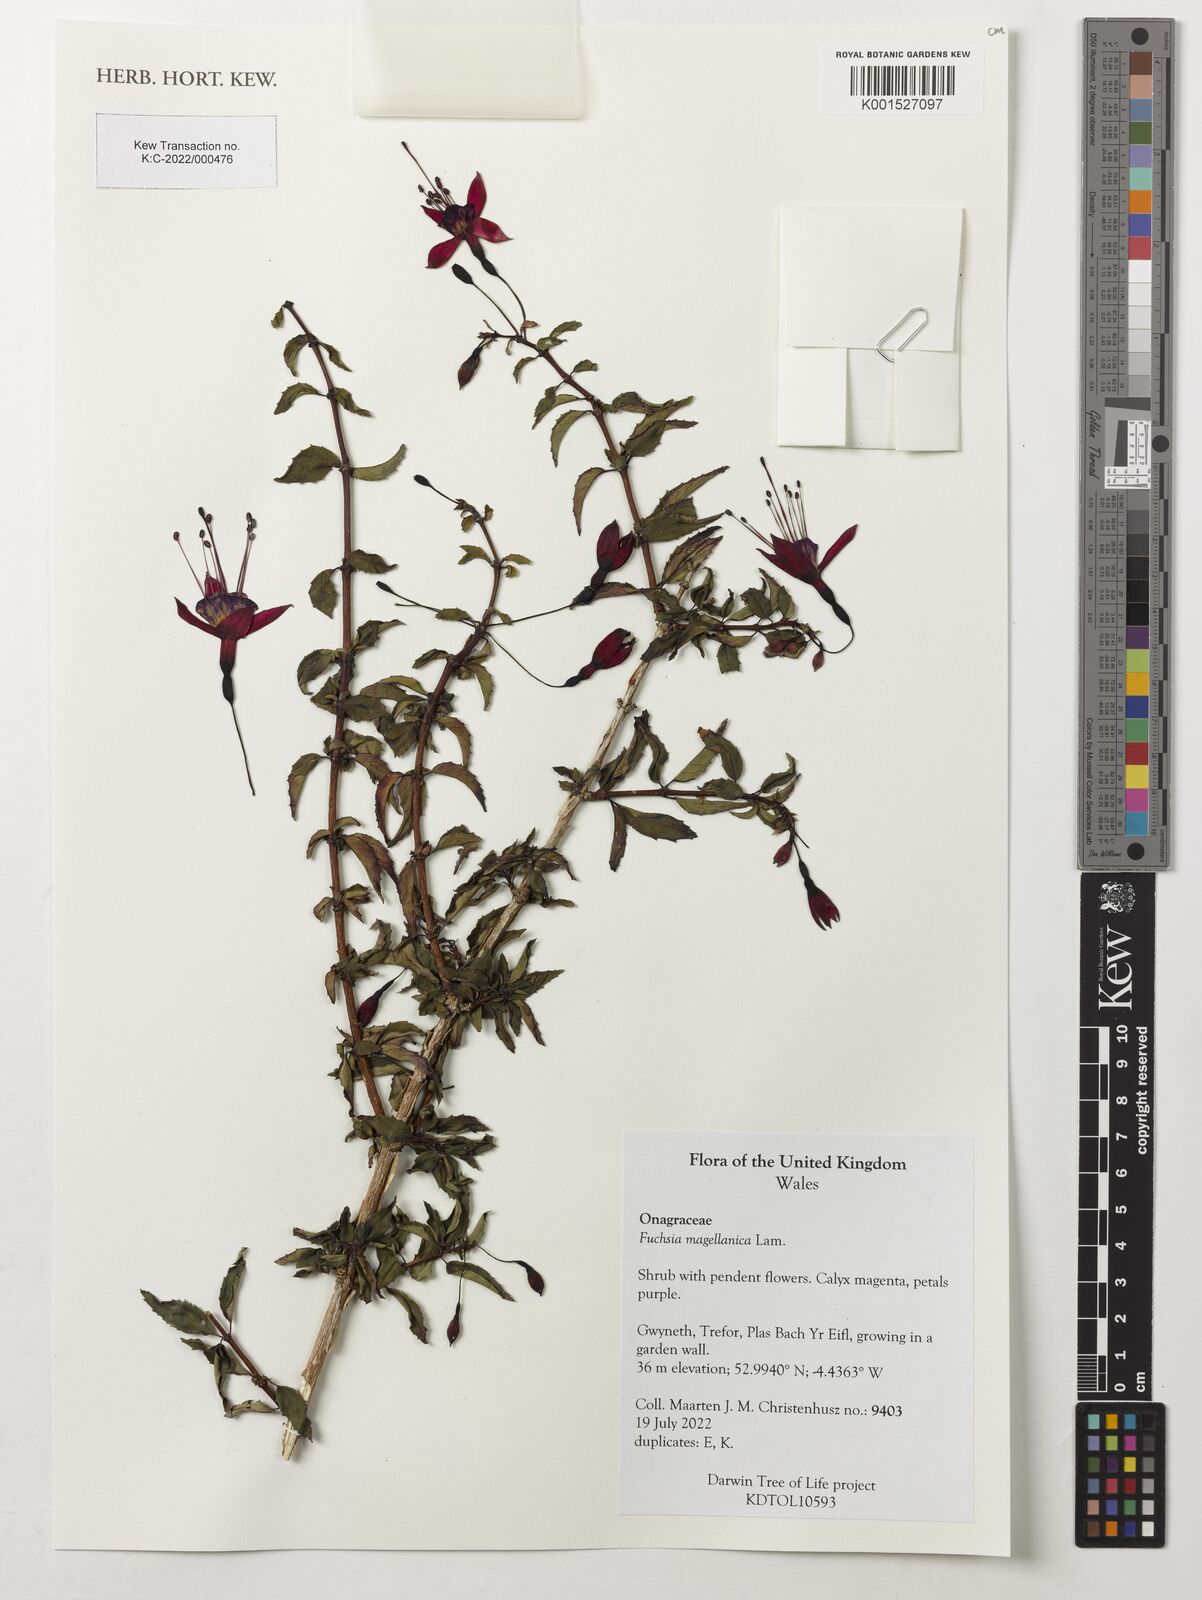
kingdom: Plantae
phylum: Tracheophyta
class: Magnoliopsida
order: Myrtales
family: Onagraceae
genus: Fuchsia
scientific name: Fuchsia magellanica
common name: Hardy fuchsia
